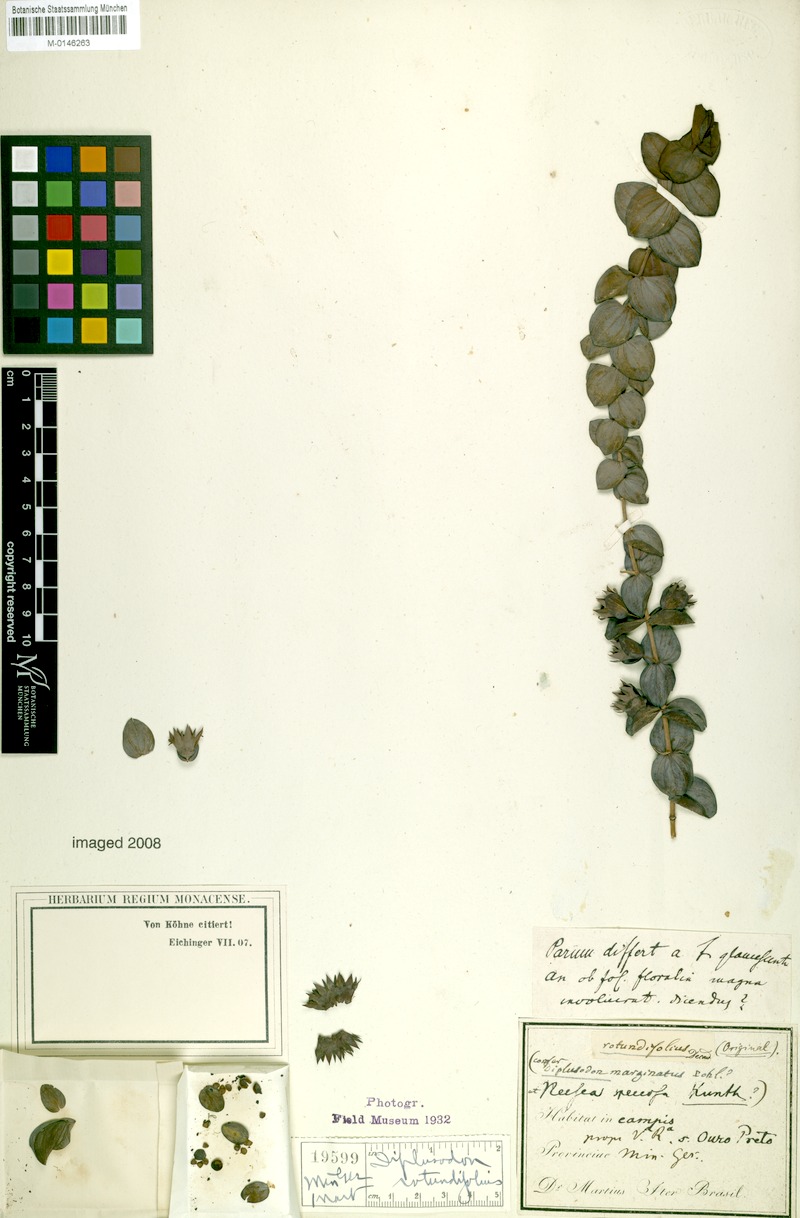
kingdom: Plantae
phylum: Tracheophyta
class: Magnoliopsida
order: Myrtales
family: Lythraceae
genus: Diplusodon
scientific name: Diplusodon rotundifolius
